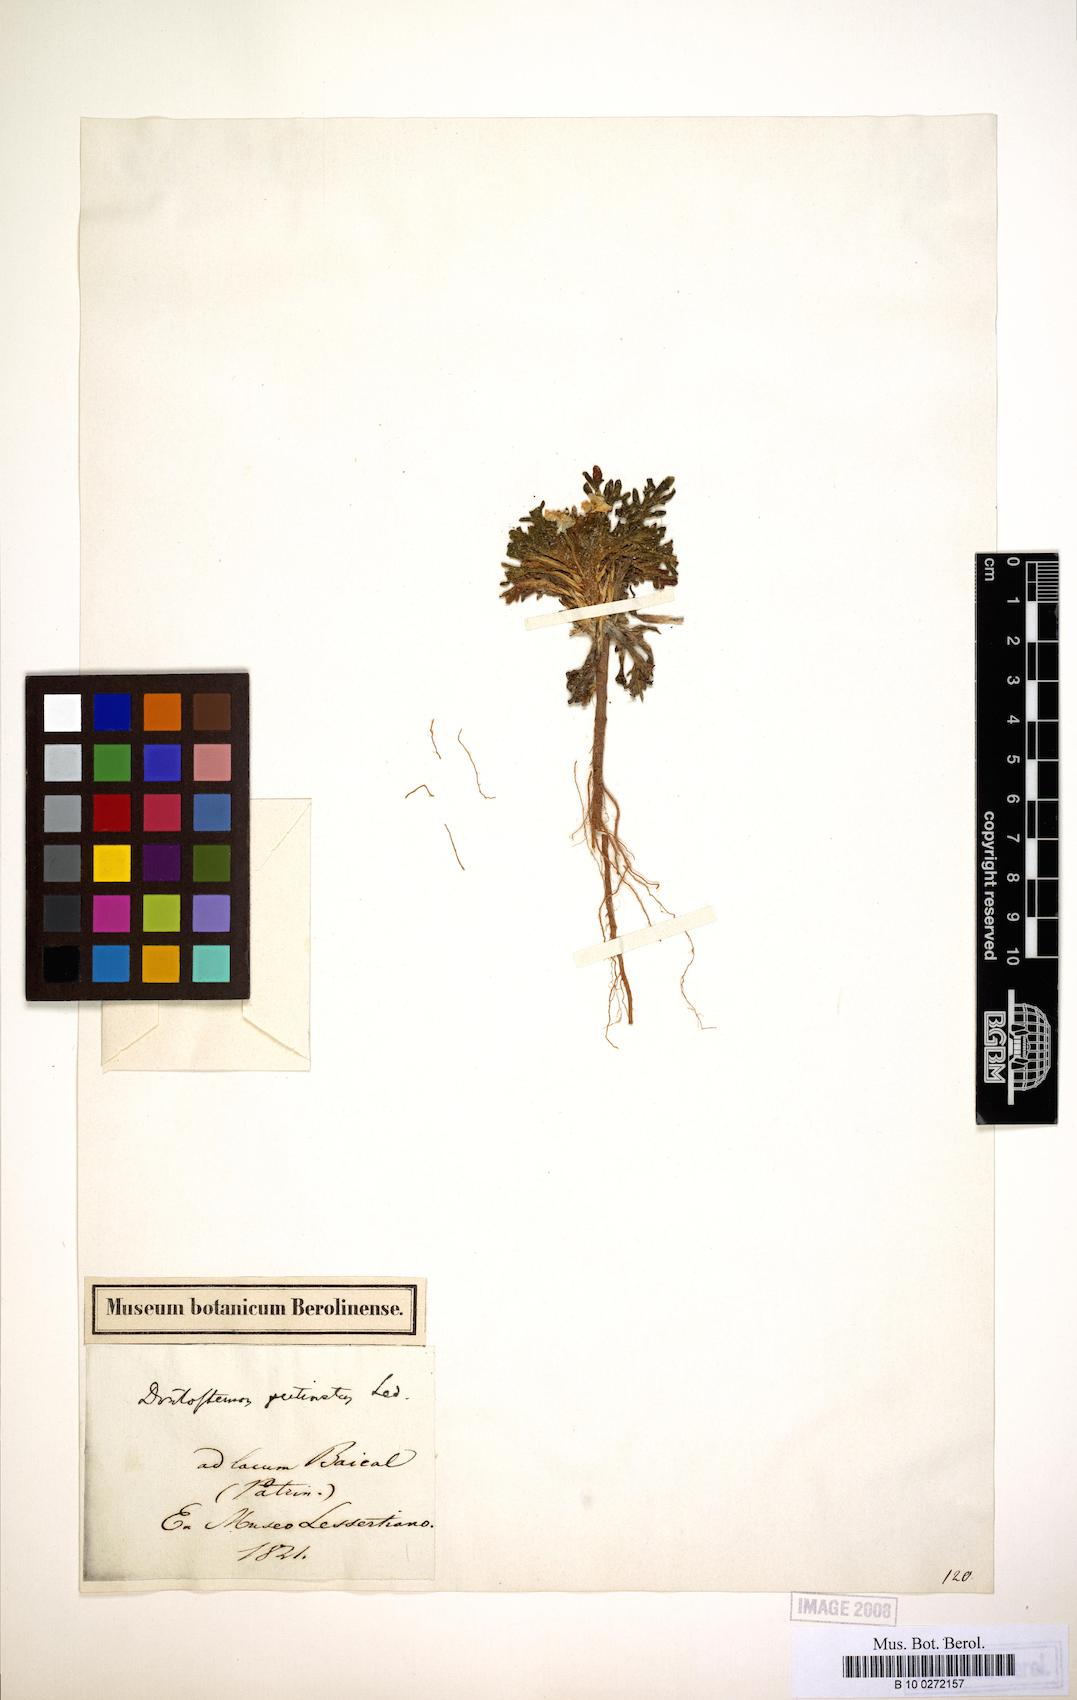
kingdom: Plantae
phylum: Tracheophyta
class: Magnoliopsida
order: Brassicales
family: Brassicaceae
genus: Dontostemon
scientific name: Dontostemon pinnatifidus
